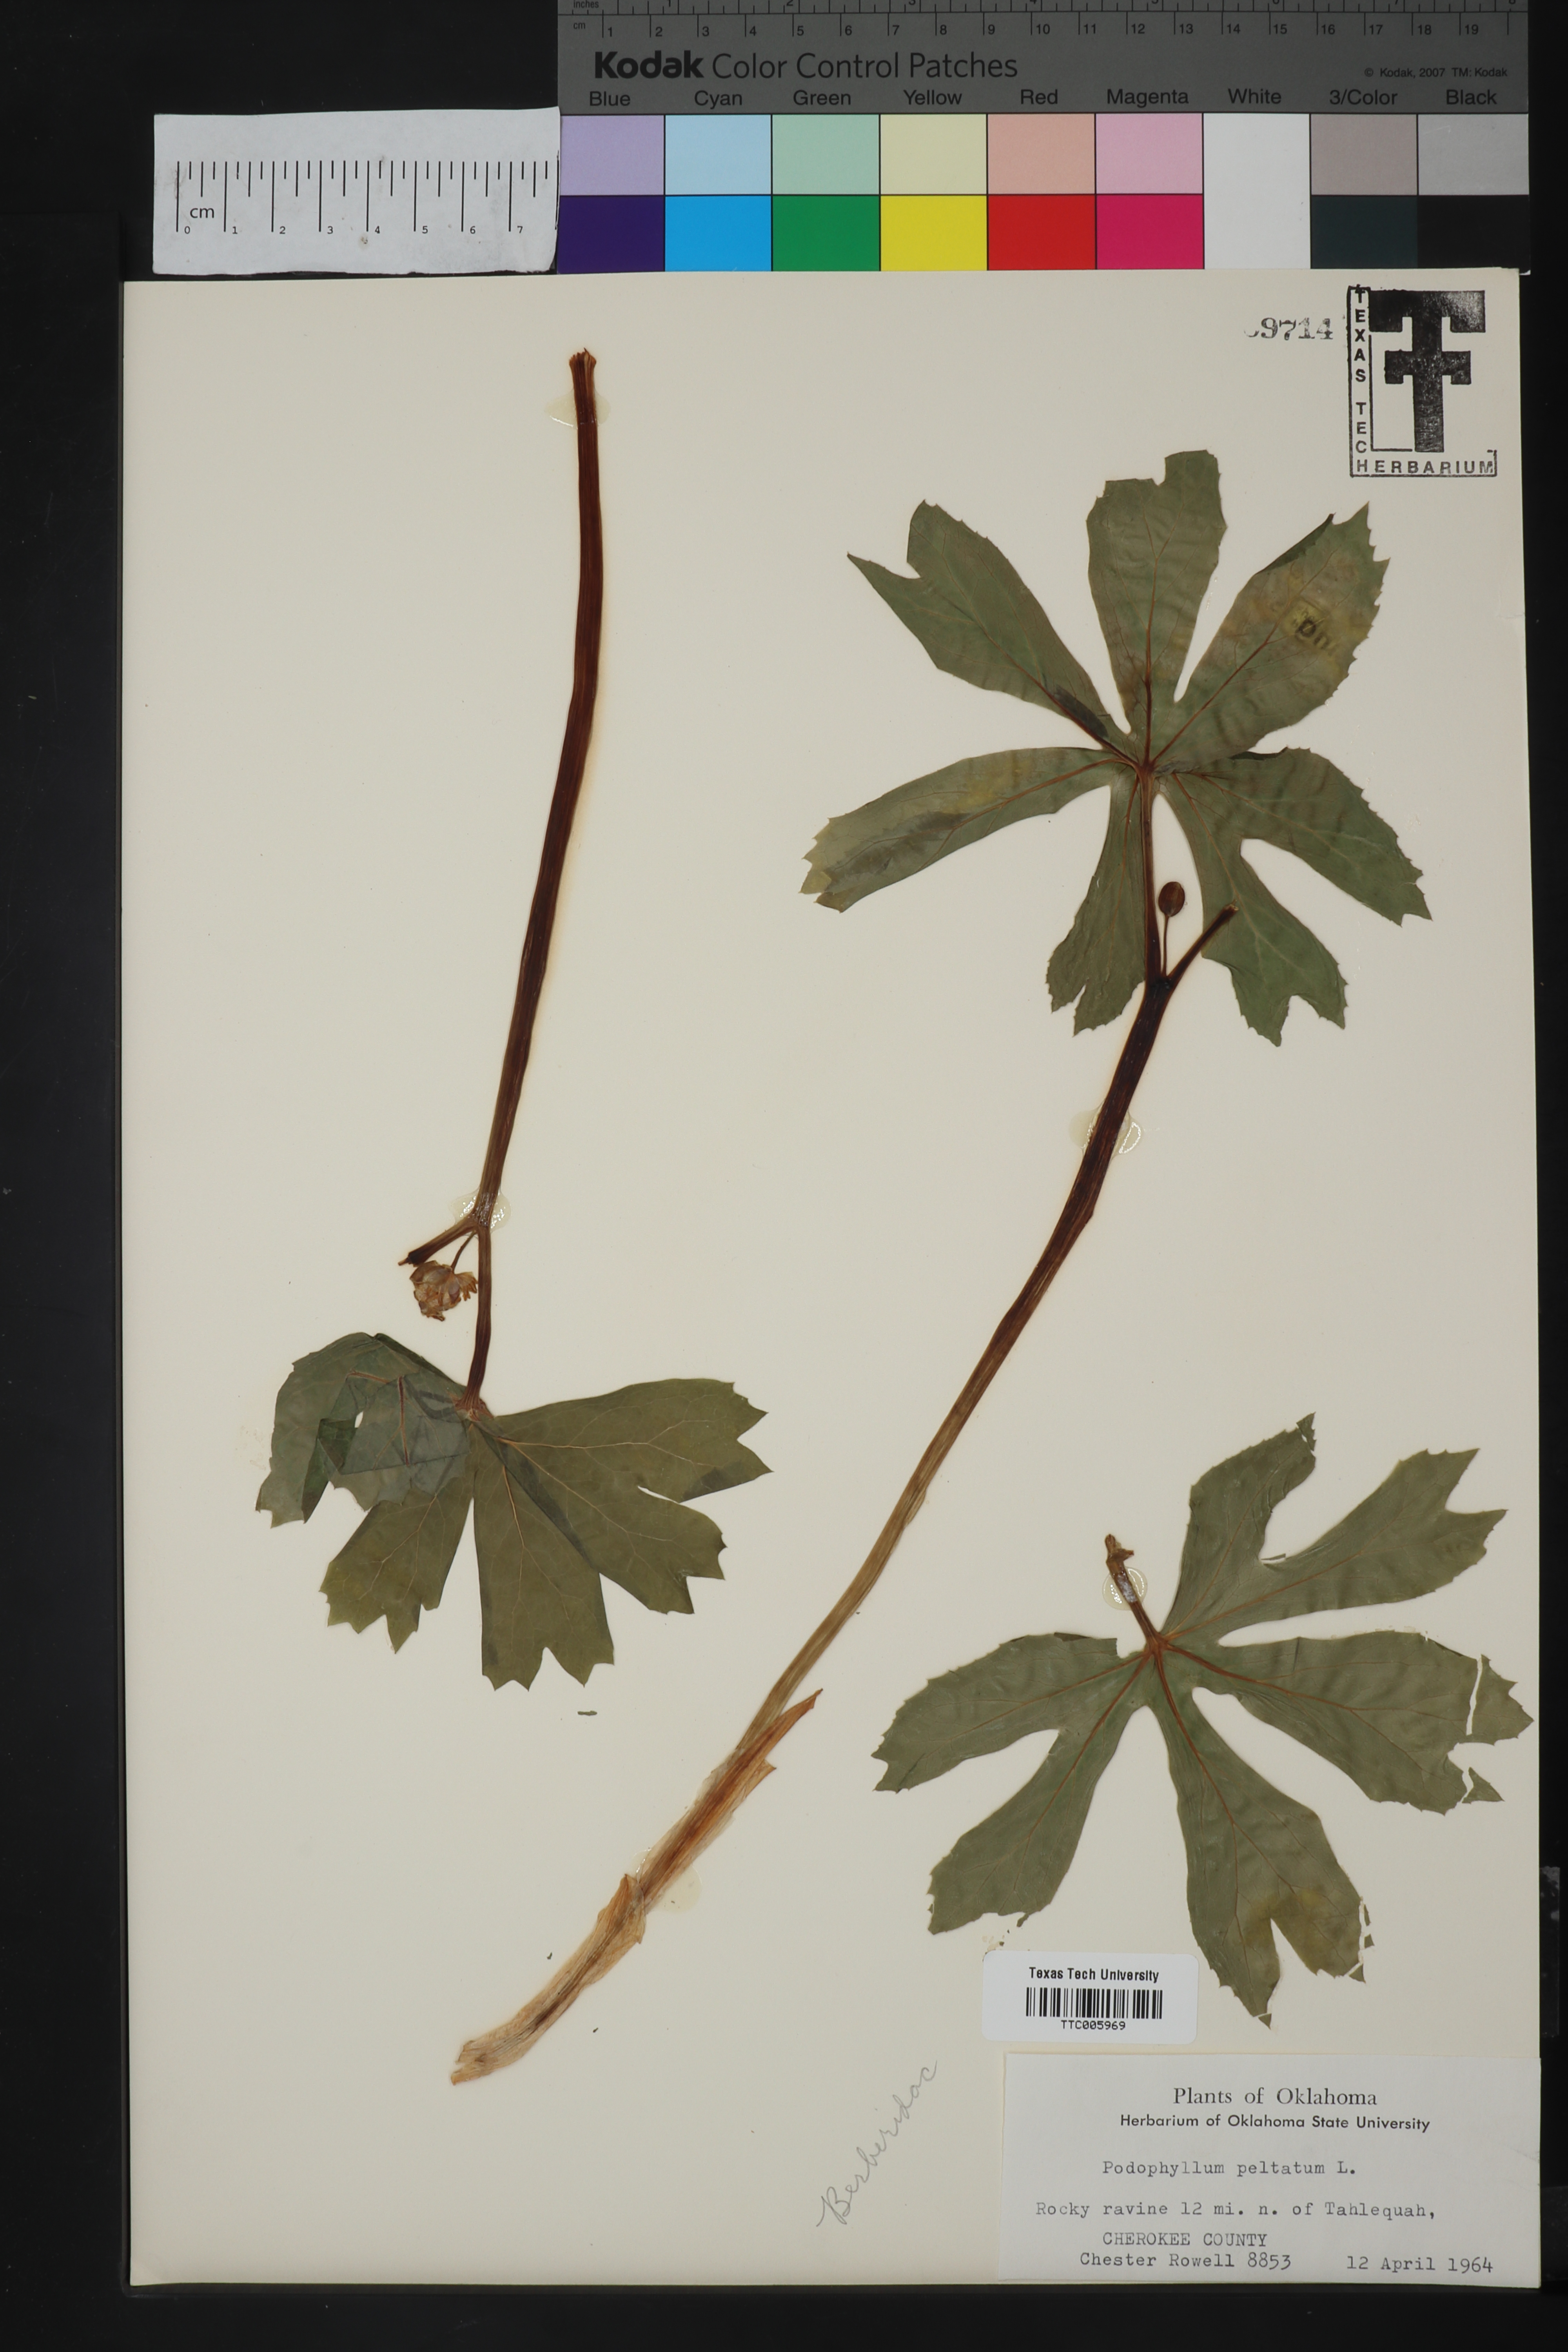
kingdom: Plantae
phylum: Tracheophyta
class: Magnoliopsida
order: Ranunculales
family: Berberidaceae
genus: Podophyllum
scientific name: Podophyllum peltatum
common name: Wild mandrake
